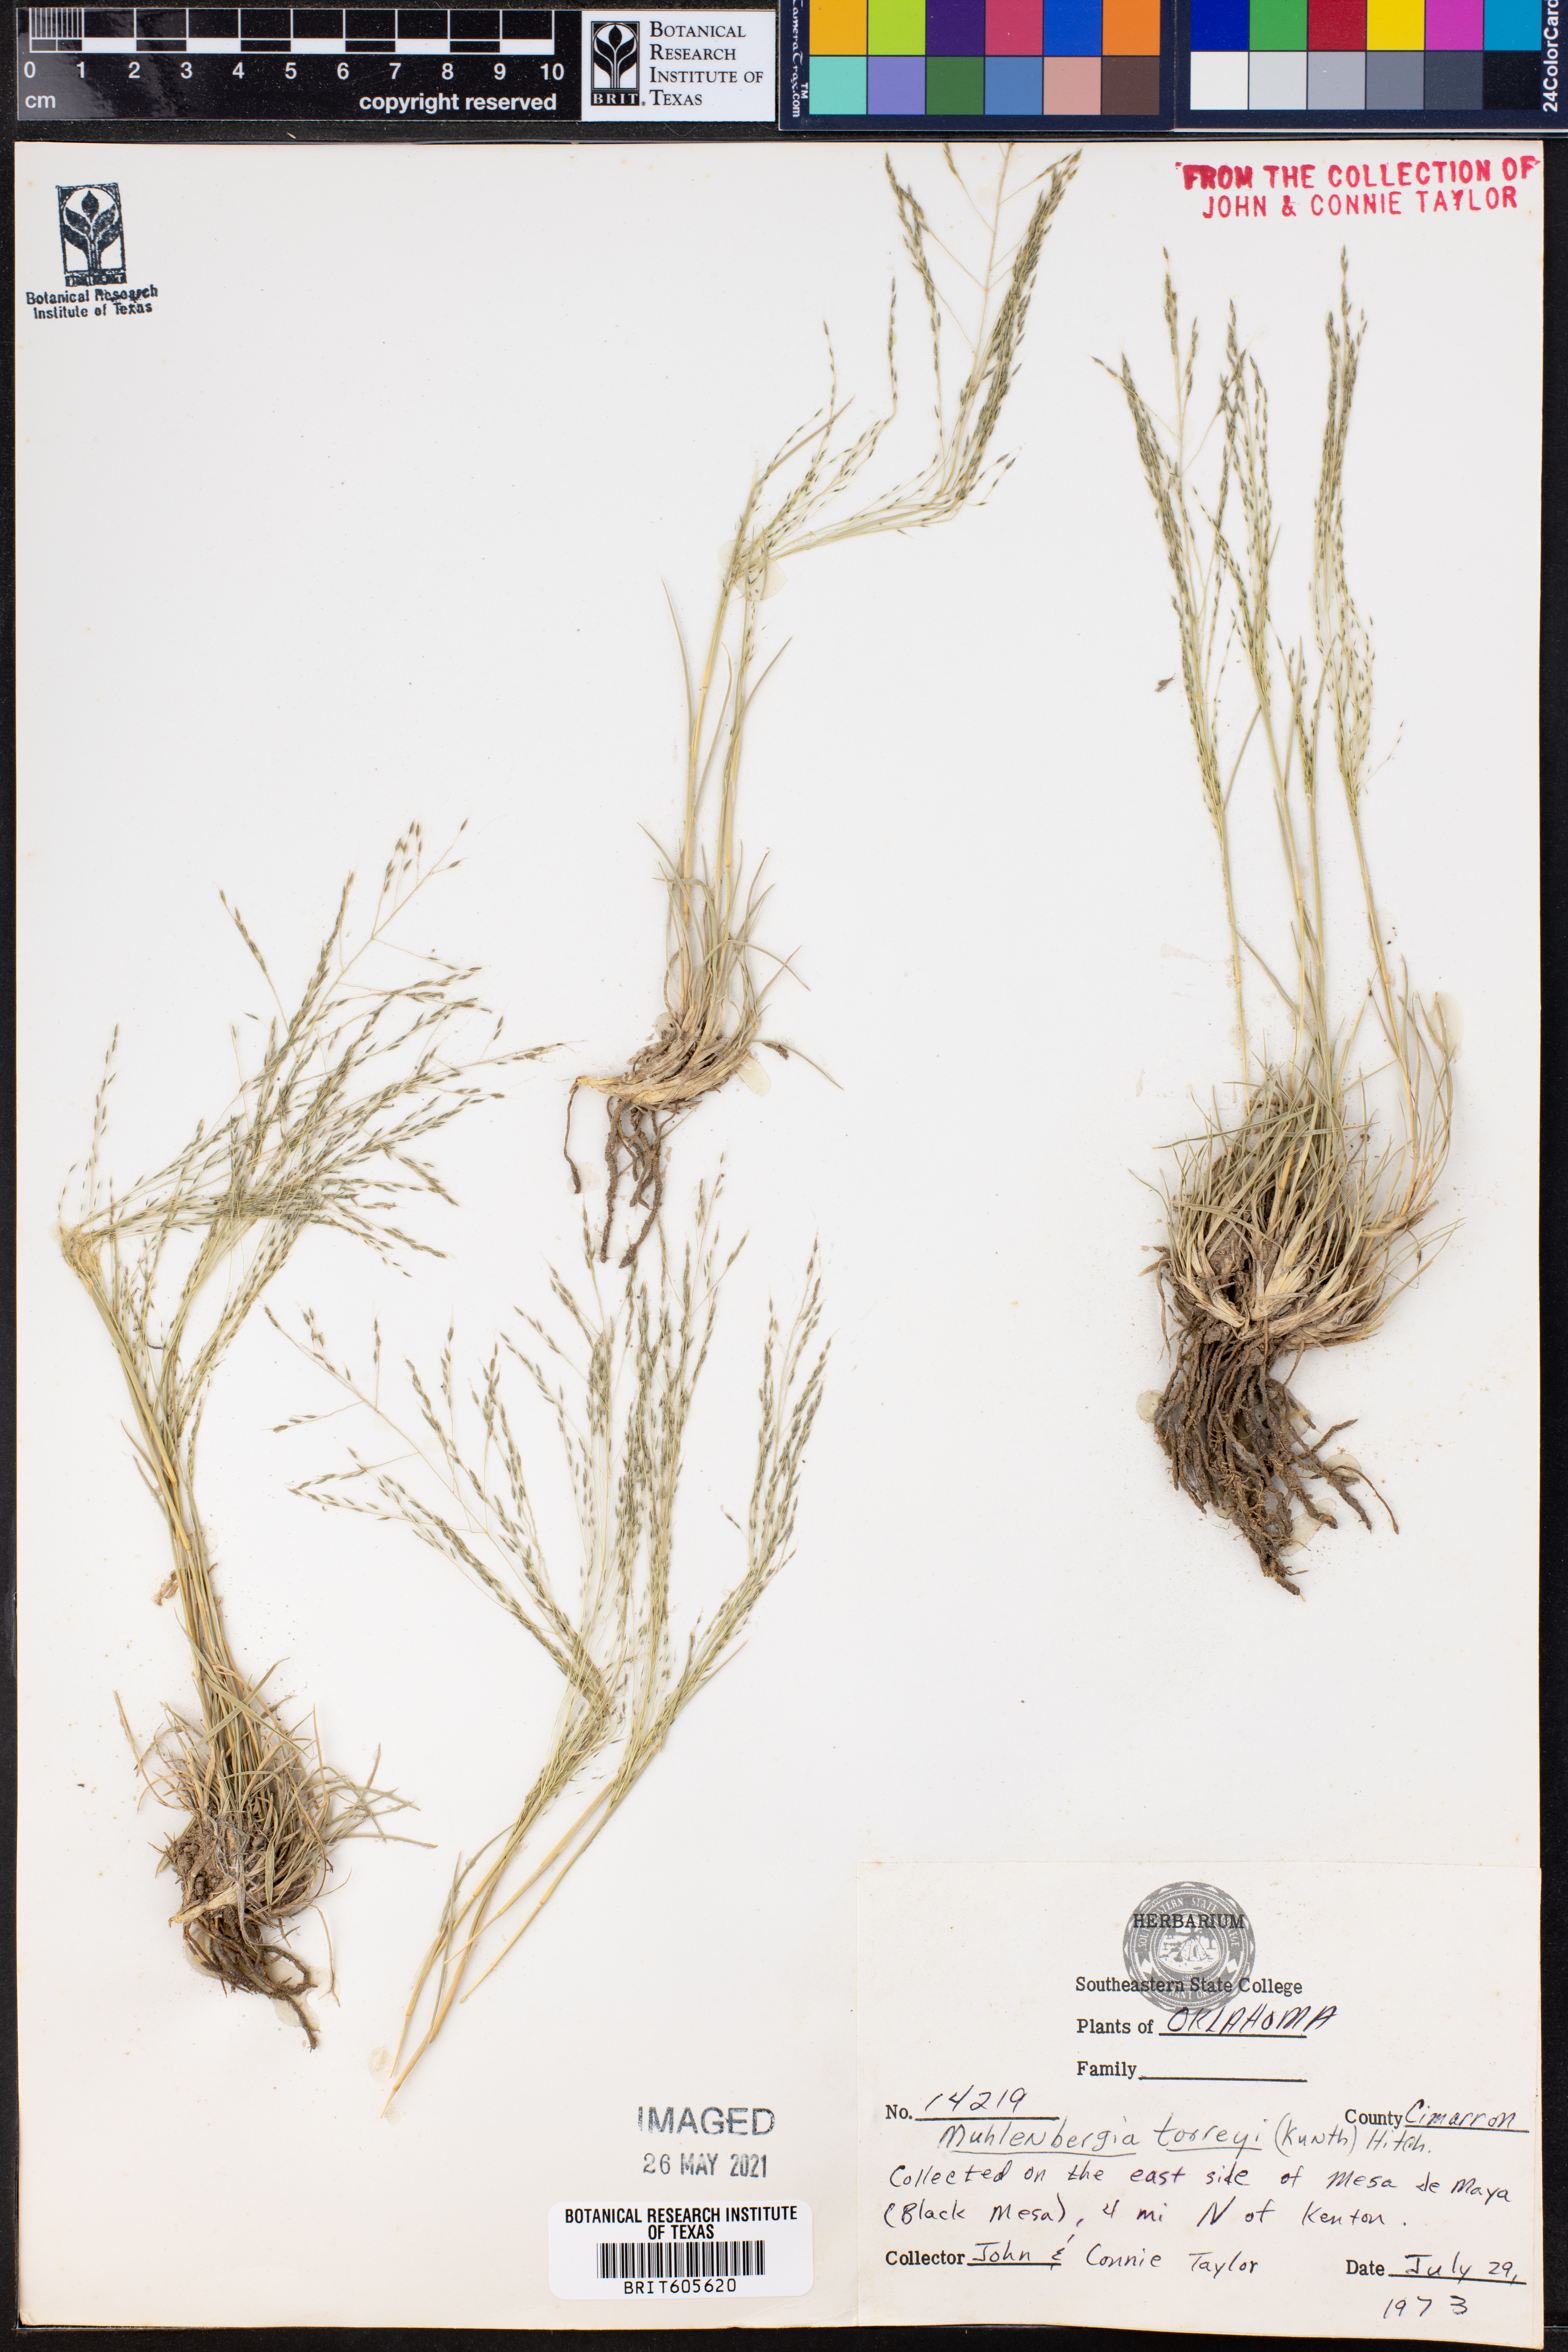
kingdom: Plantae
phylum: Tracheophyta
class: Liliopsida
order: Poales
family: Poaceae
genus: Muhlenbergia
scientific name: Muhlenbergia torreyi
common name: Ring grass
